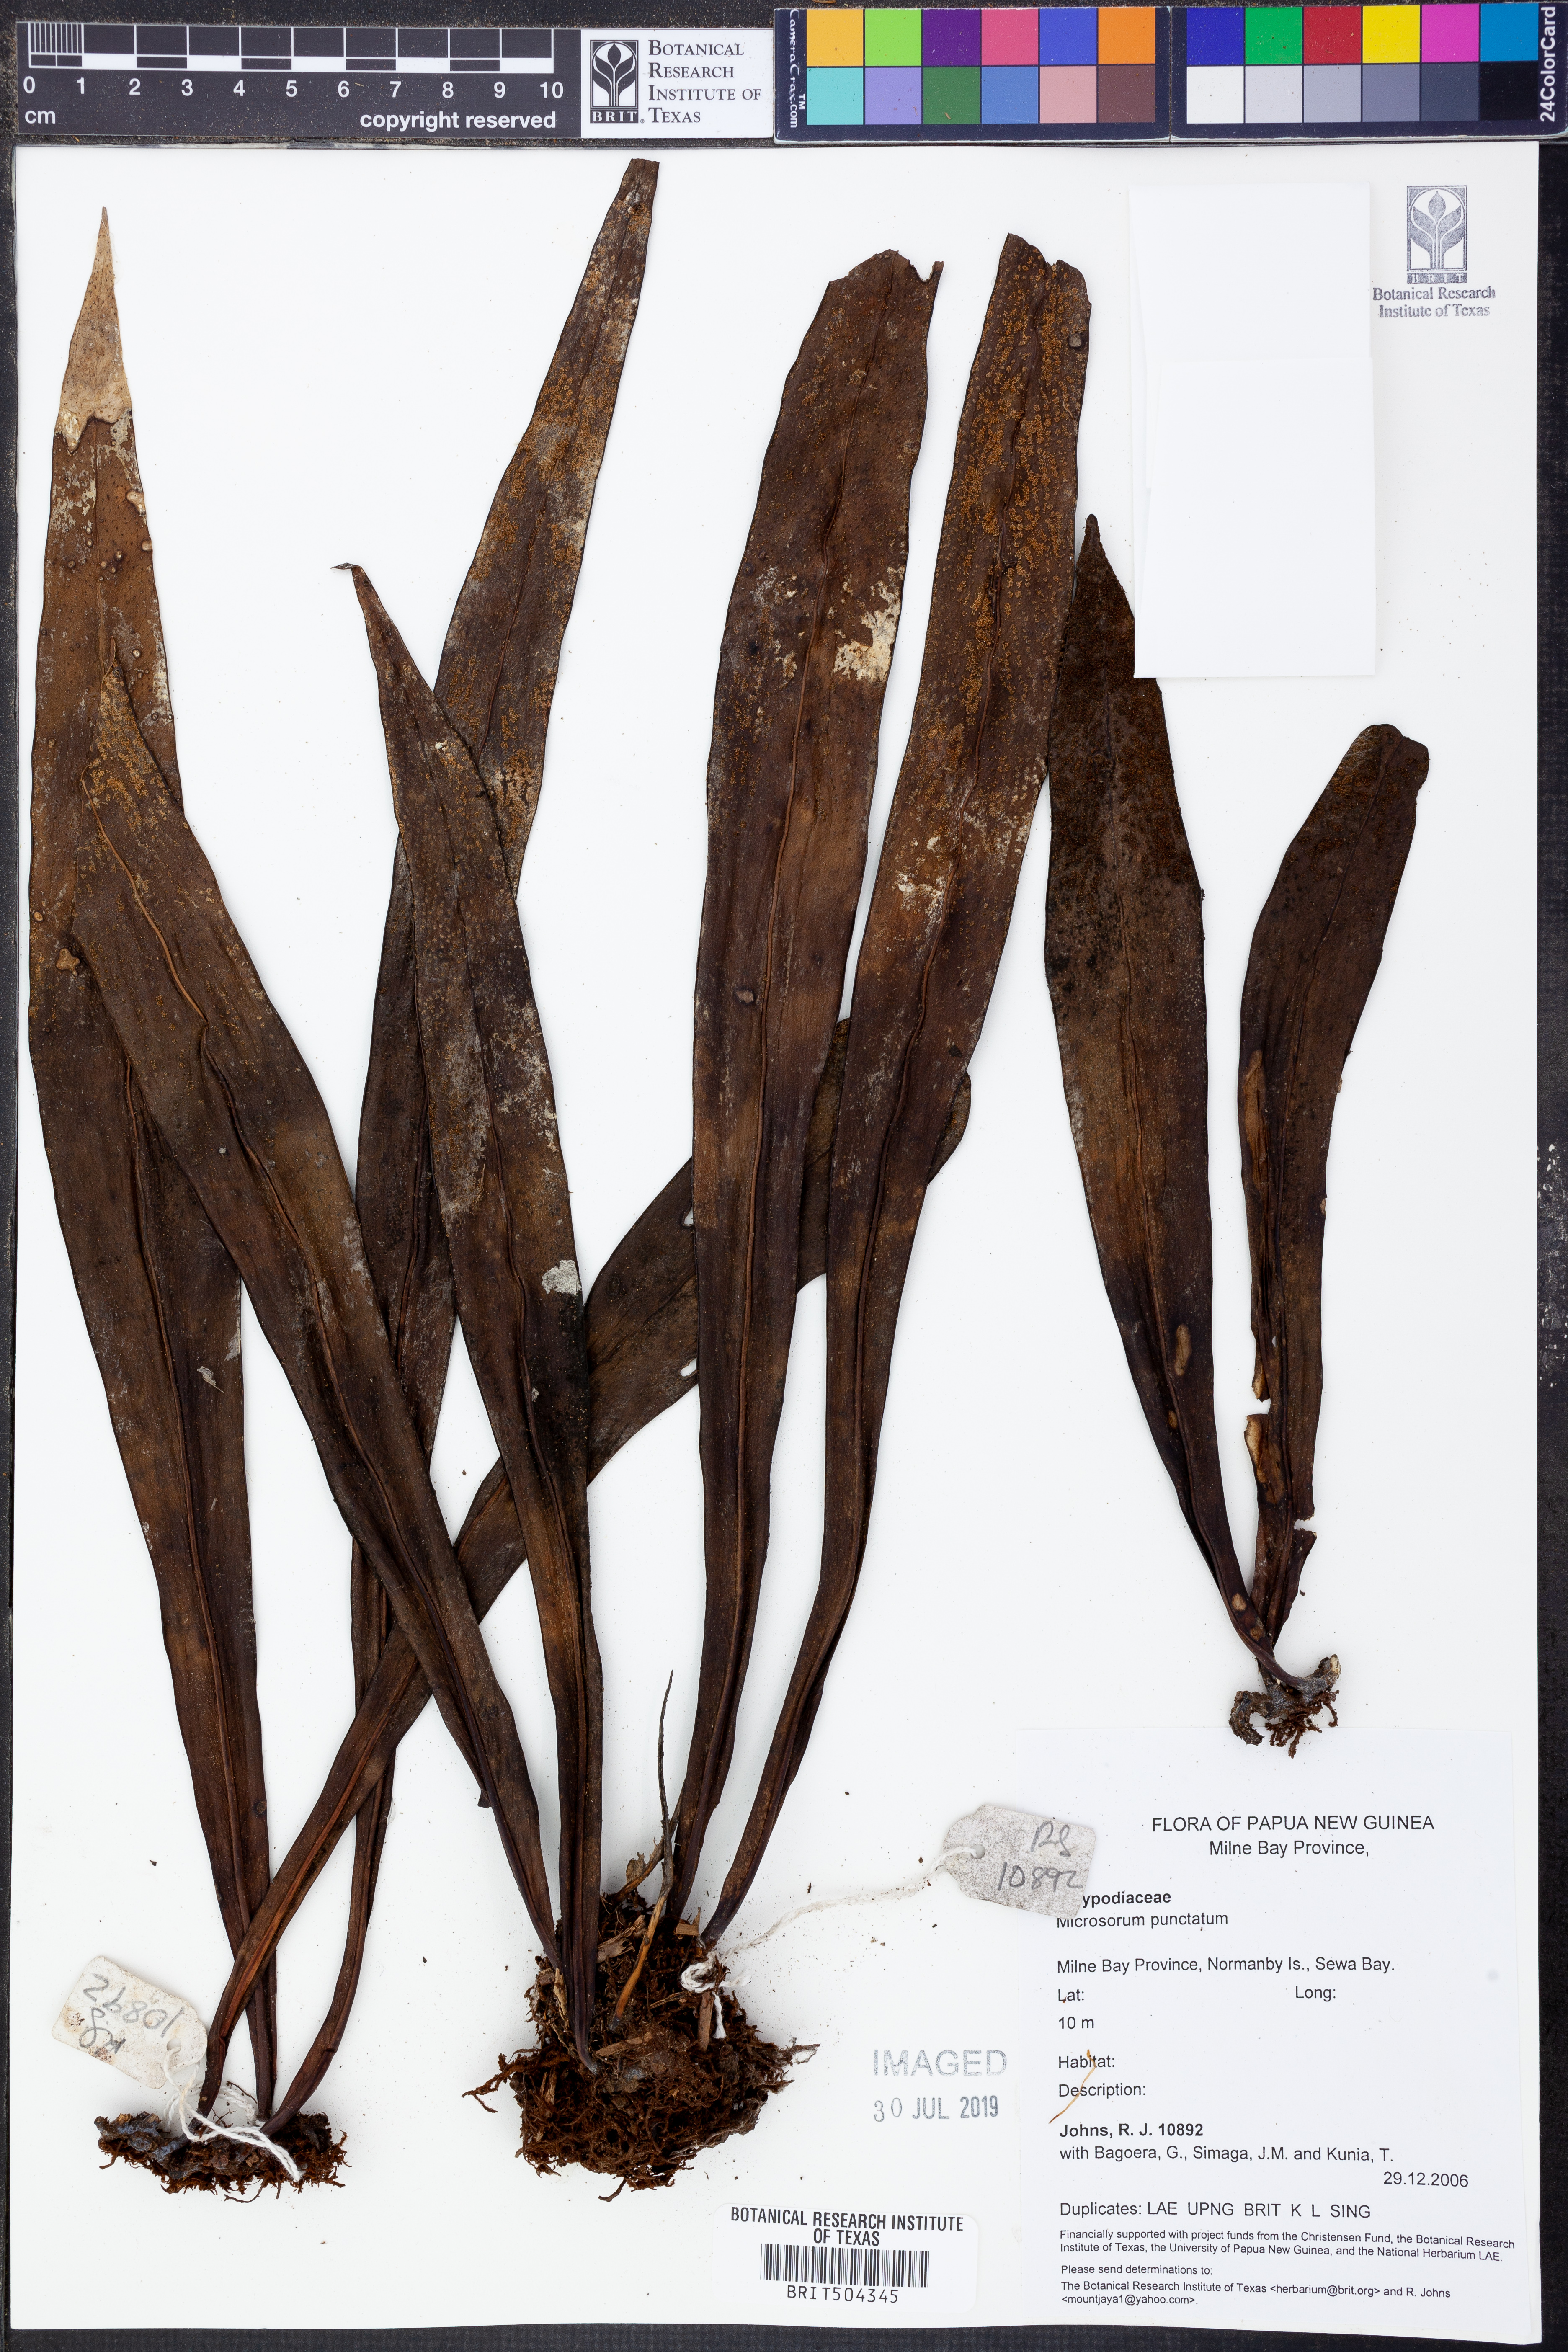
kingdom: Plantae
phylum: Tracheophyta
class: Polypodiopsida
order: Polypodiales
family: Polypodiaceae
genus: Microsorum
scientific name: Microsorum punctatum
